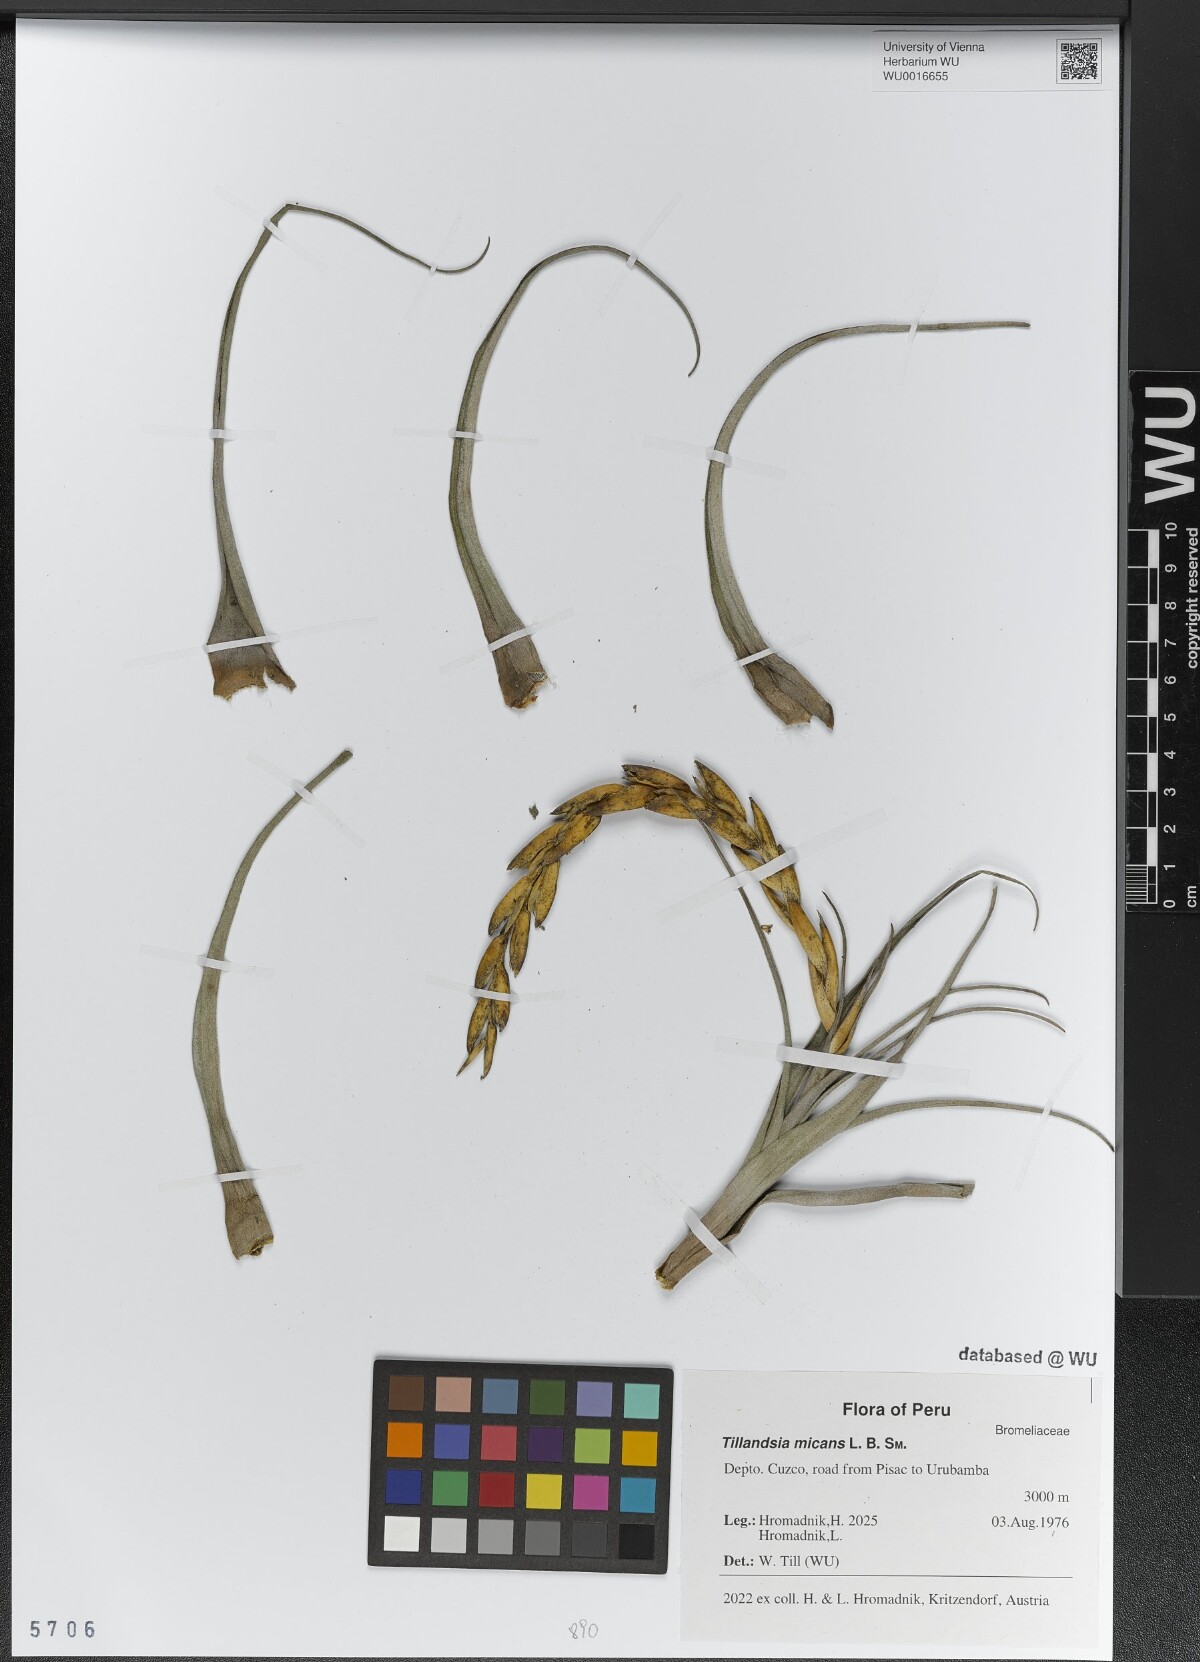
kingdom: Plantae
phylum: Tracheophyta
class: Liliopsida
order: Poales
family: Bromeliaceae
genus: Tillandsia
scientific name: Tillandsia micans
